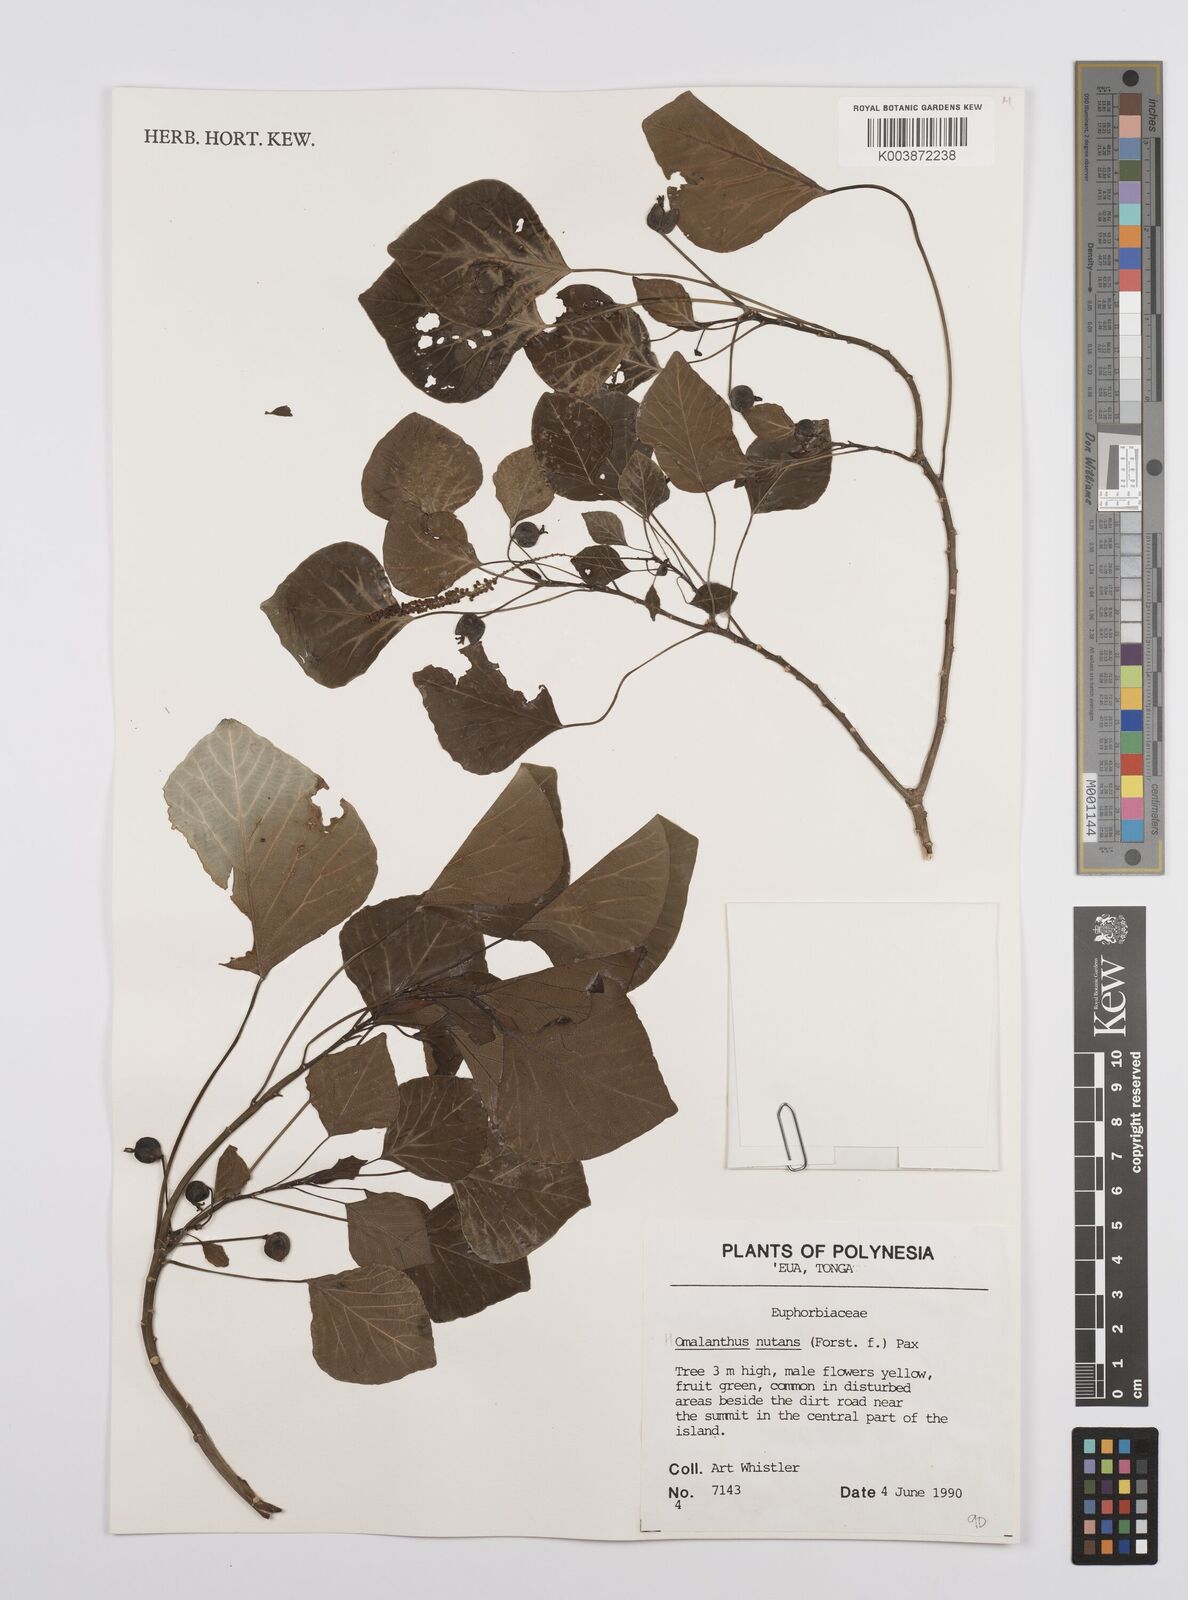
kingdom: Plantae
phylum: Tracheophyta
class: Magnoliopsida
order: Malpighiales
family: Euphorbiaceae
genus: Homalanthus
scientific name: Homalanthus nutans
